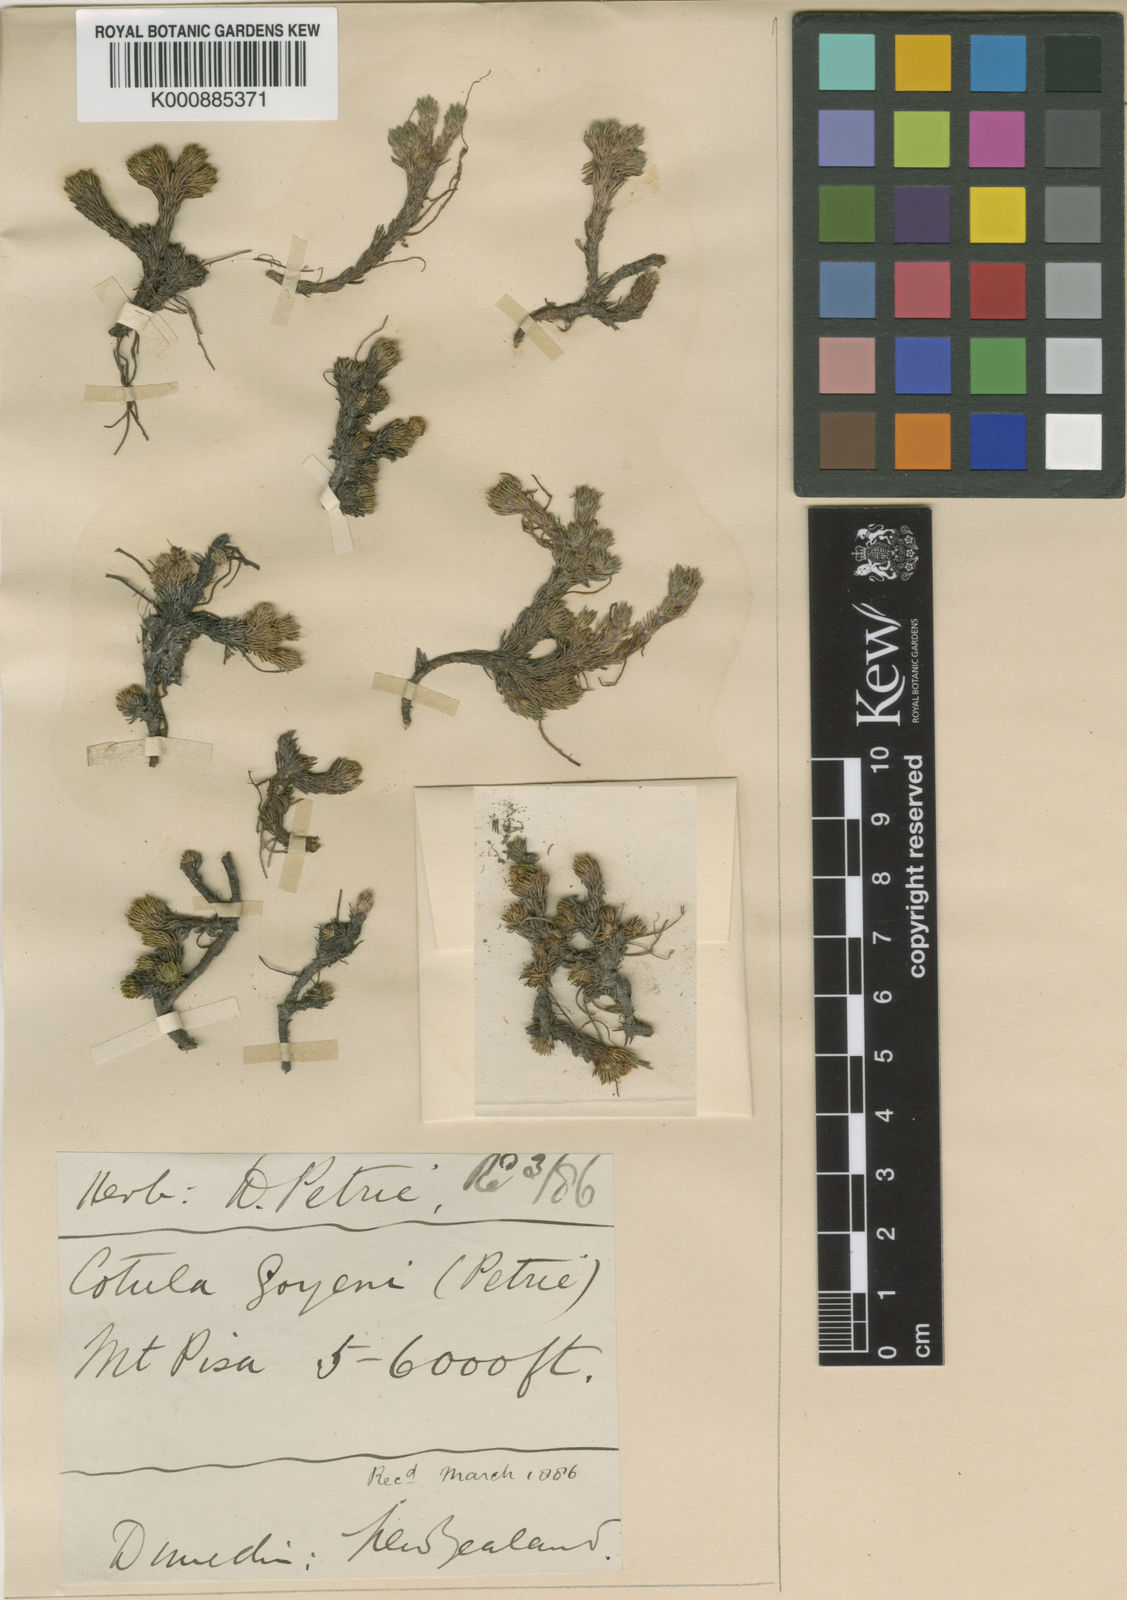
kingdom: Plantae
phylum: Tracheophyta
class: Magnoliopsida
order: Asterales
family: Asteraceae
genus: Leptinella
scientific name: Leptinella
